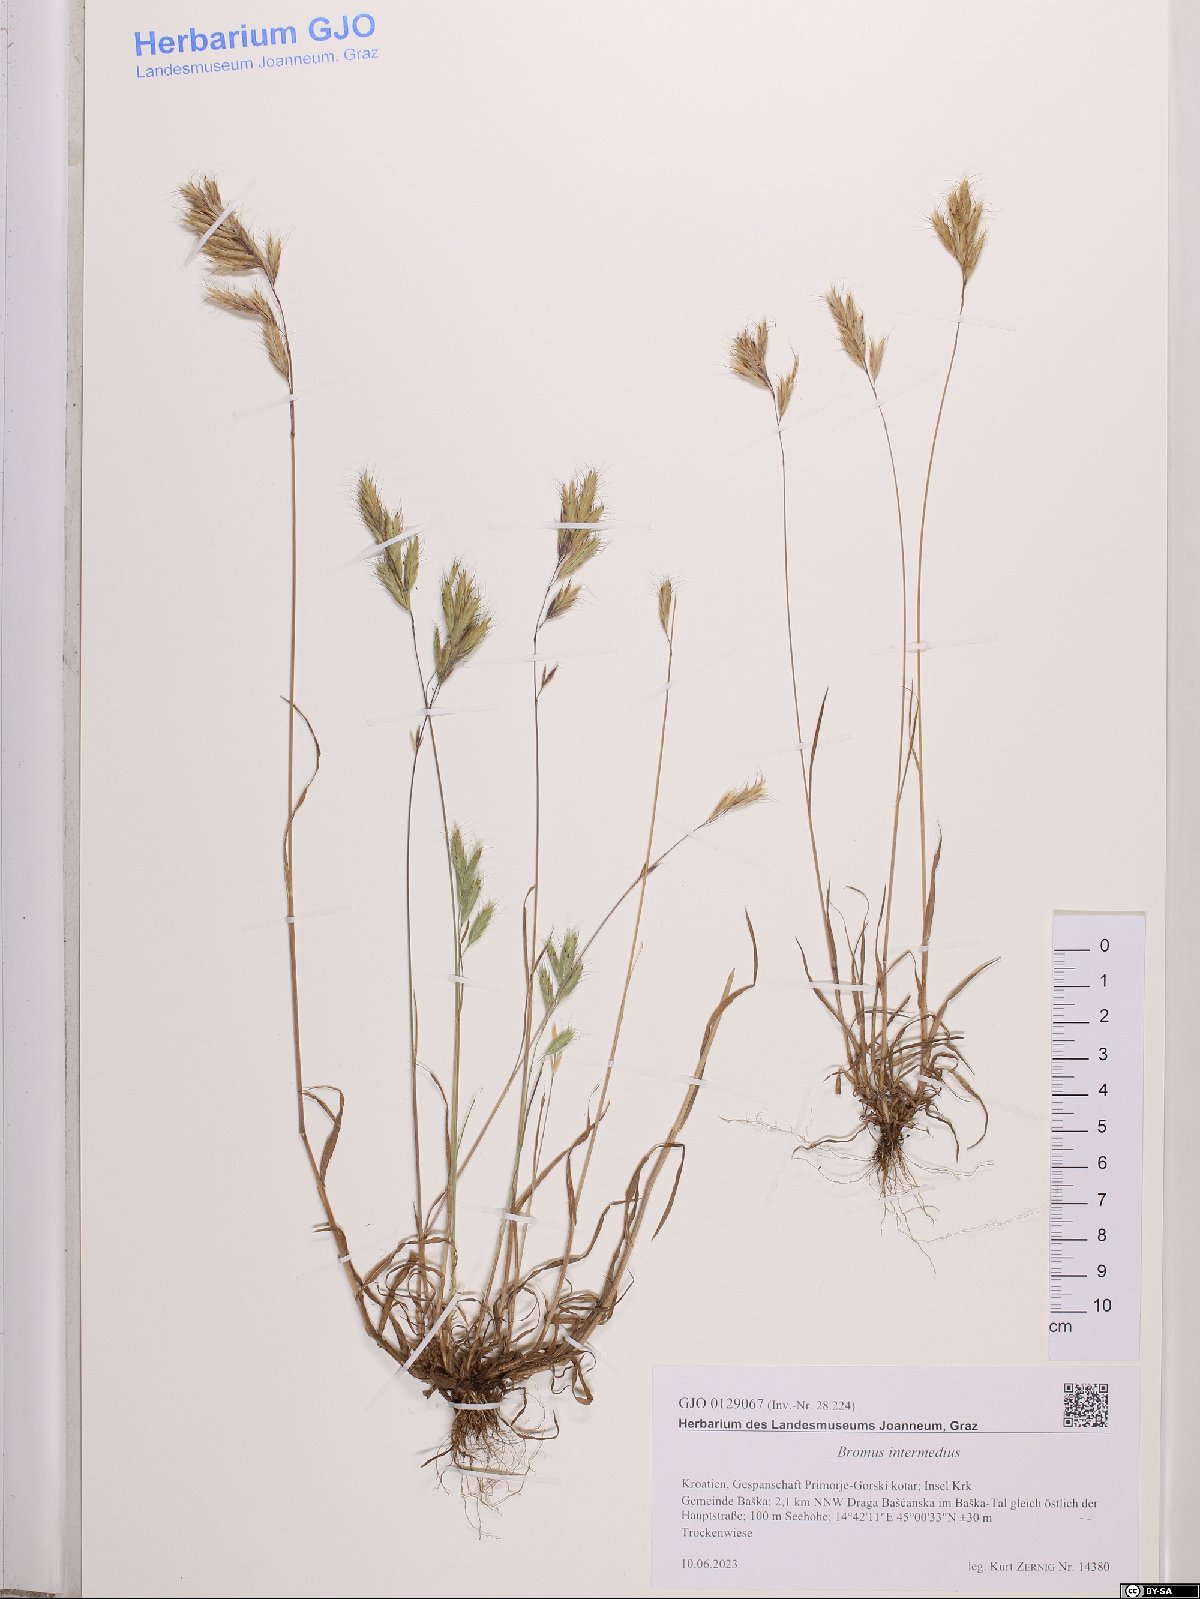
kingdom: Plantae
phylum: Tracheophyta
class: Liliopsida
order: Poales
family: Poaceae
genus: Bromus
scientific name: Bromus intermedius
